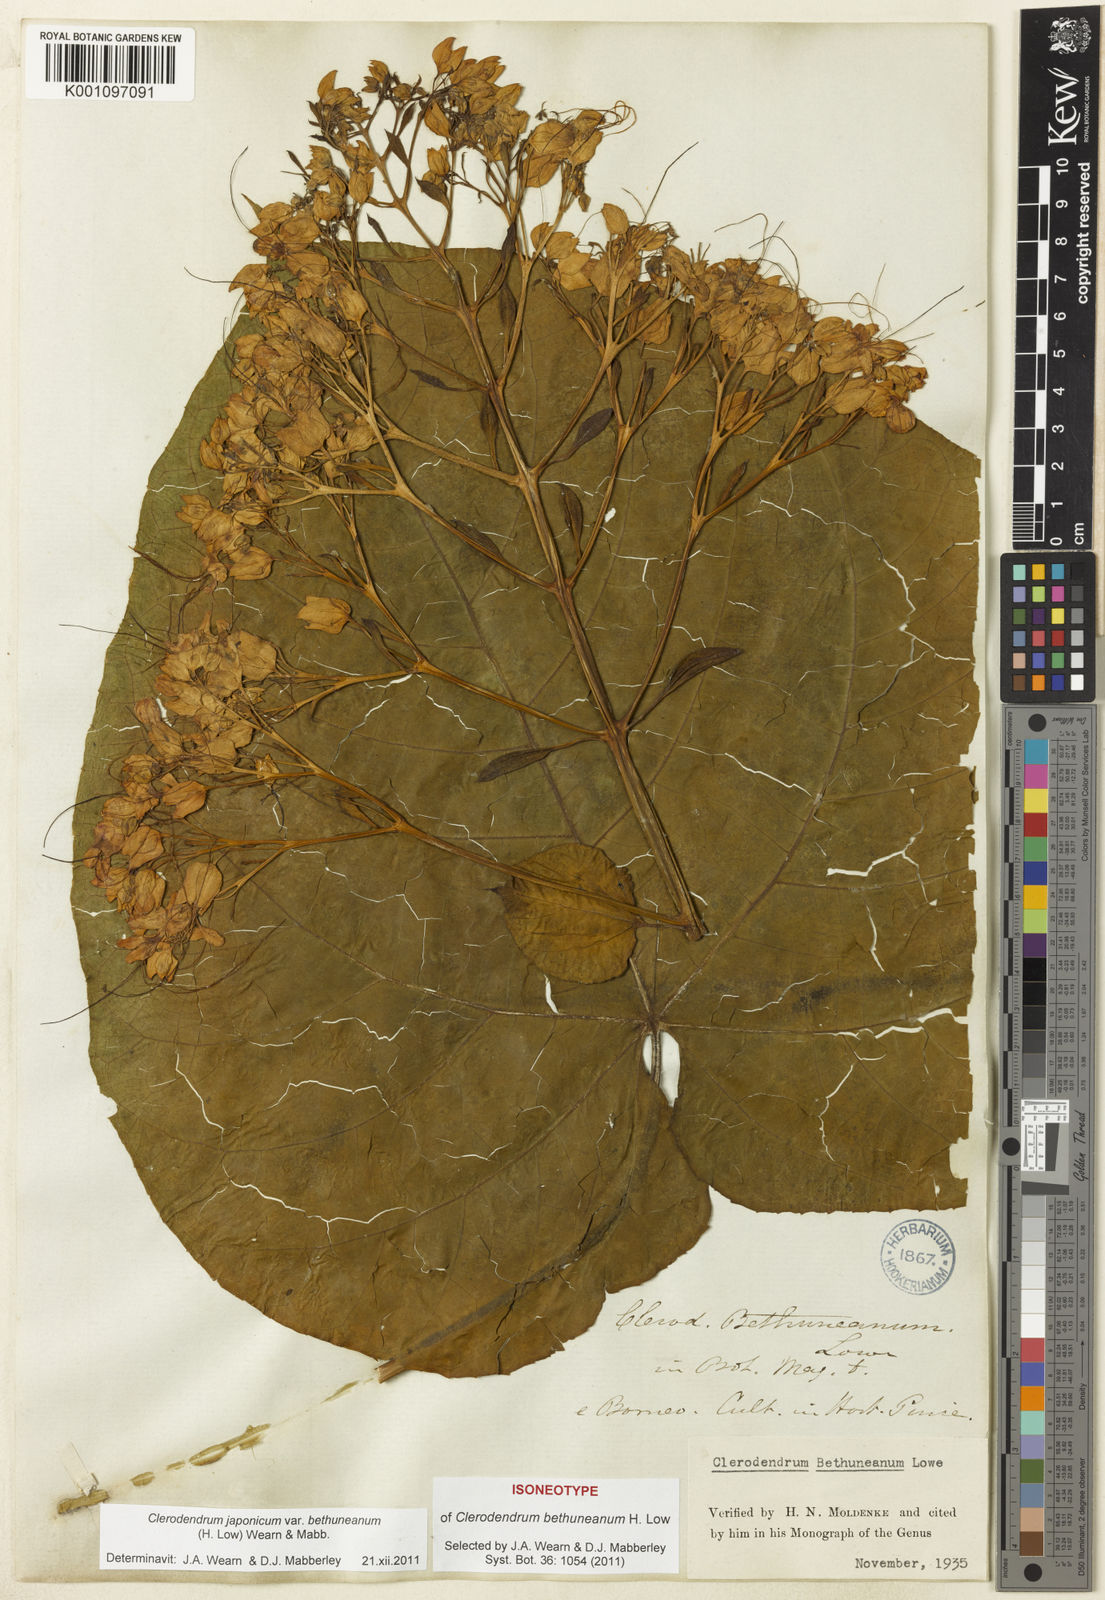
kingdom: Plantae
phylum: Tracheophyta
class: Magnoliopsida
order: Lamiales
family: Lamiaceae
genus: Clerodendrum
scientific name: Clerodendrum japonicum
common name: Japanese glorybower
